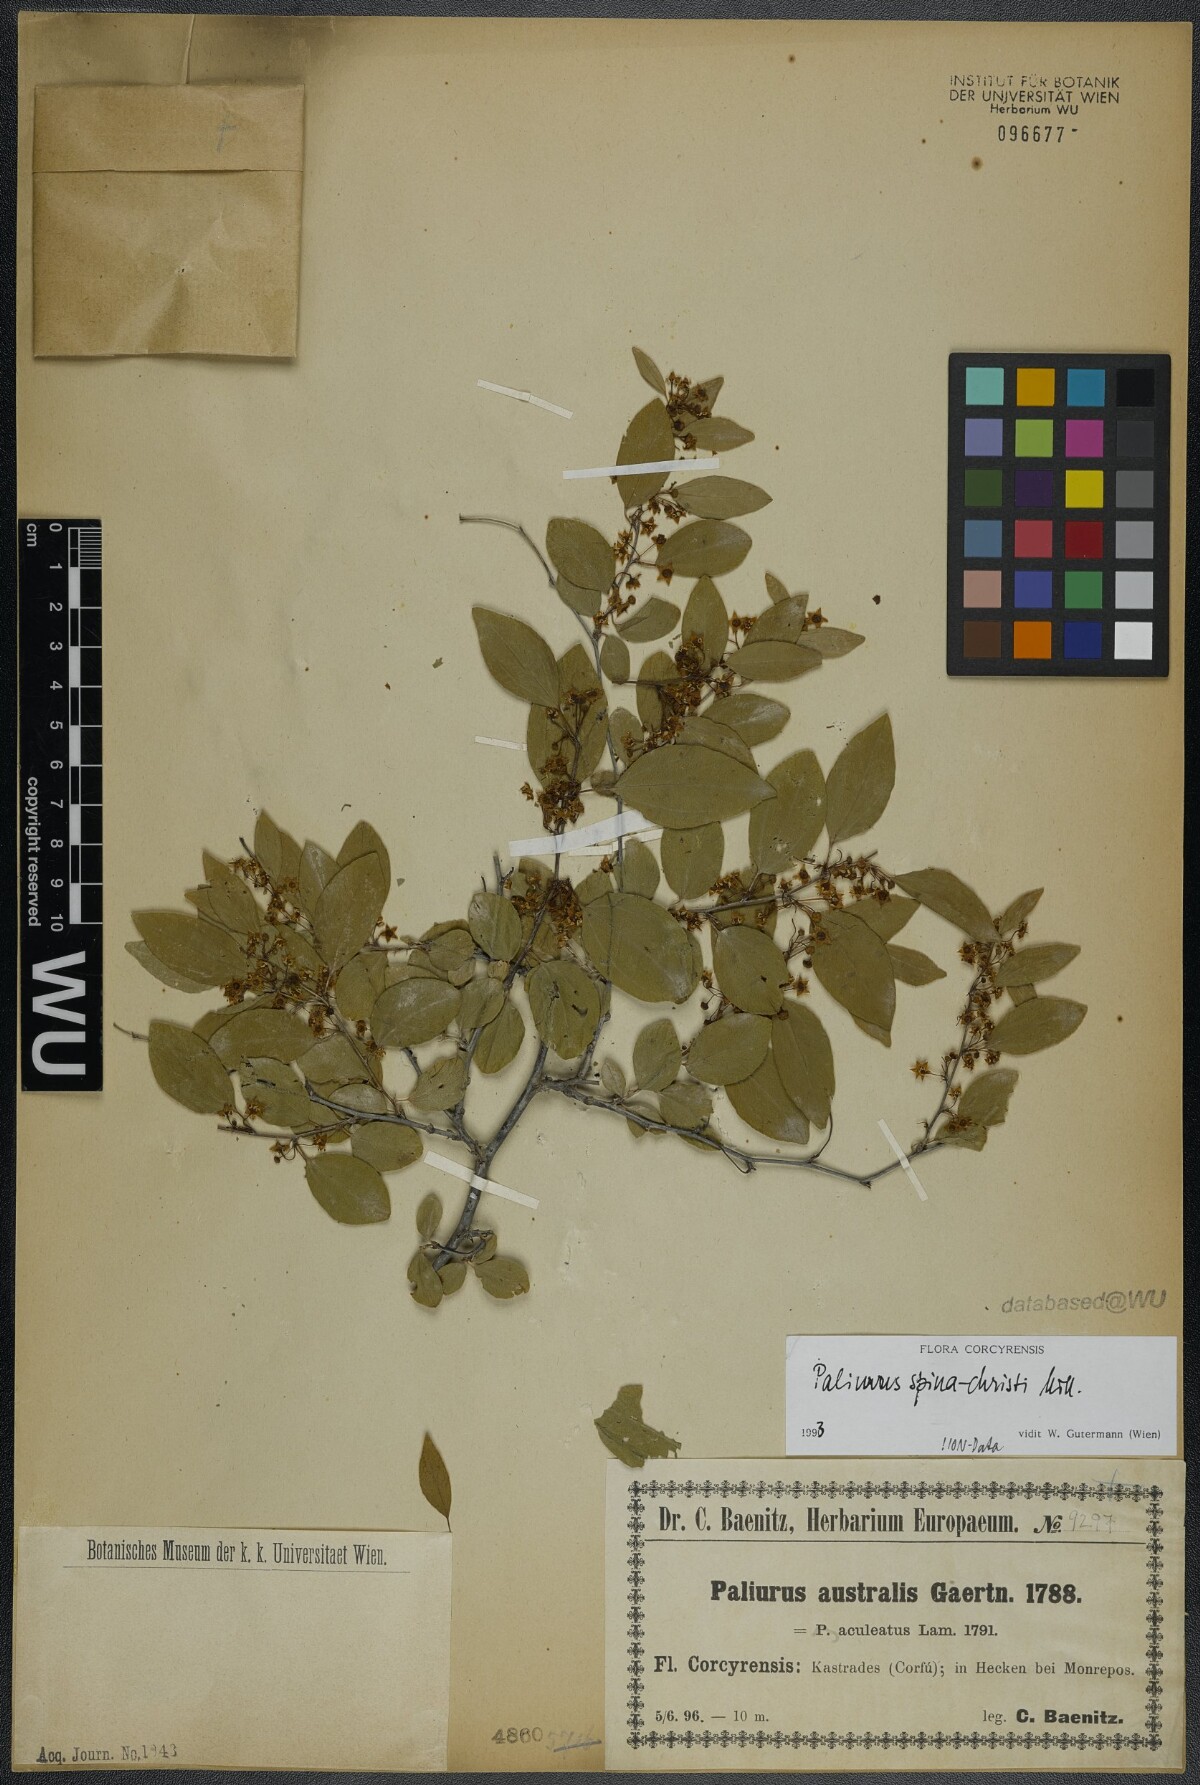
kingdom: Plantae
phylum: Tracheophyta
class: Magnoliopsida
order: Rosales
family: Rhamnaceae
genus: Paliurus
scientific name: Paliurus spina-christi
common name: Jeruselem thorn
